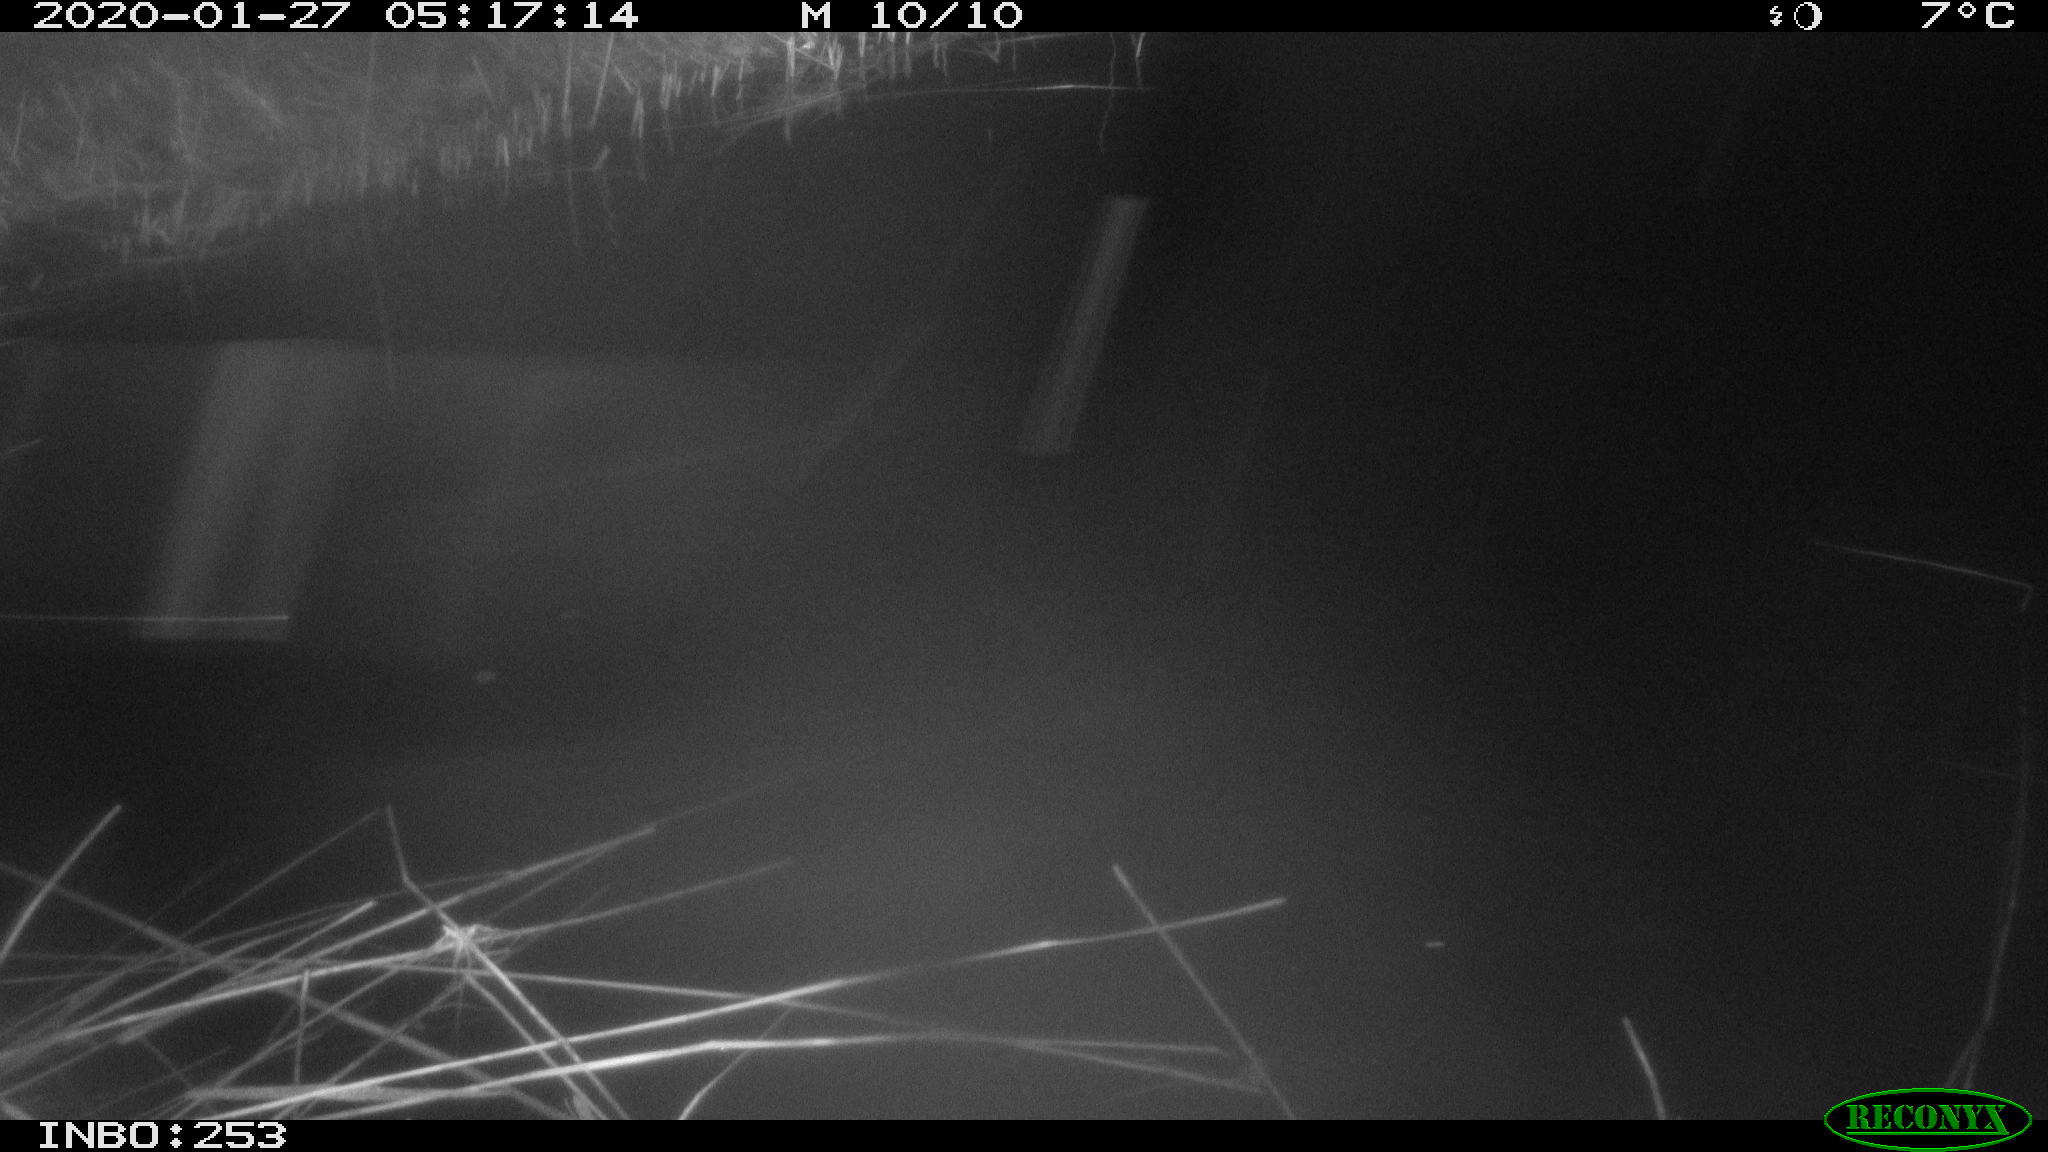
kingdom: Animalia
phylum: Chordata
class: Aves
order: Anseriformes
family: Anatidae
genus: Anas
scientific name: Anas platyrhynchos
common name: Mallard
